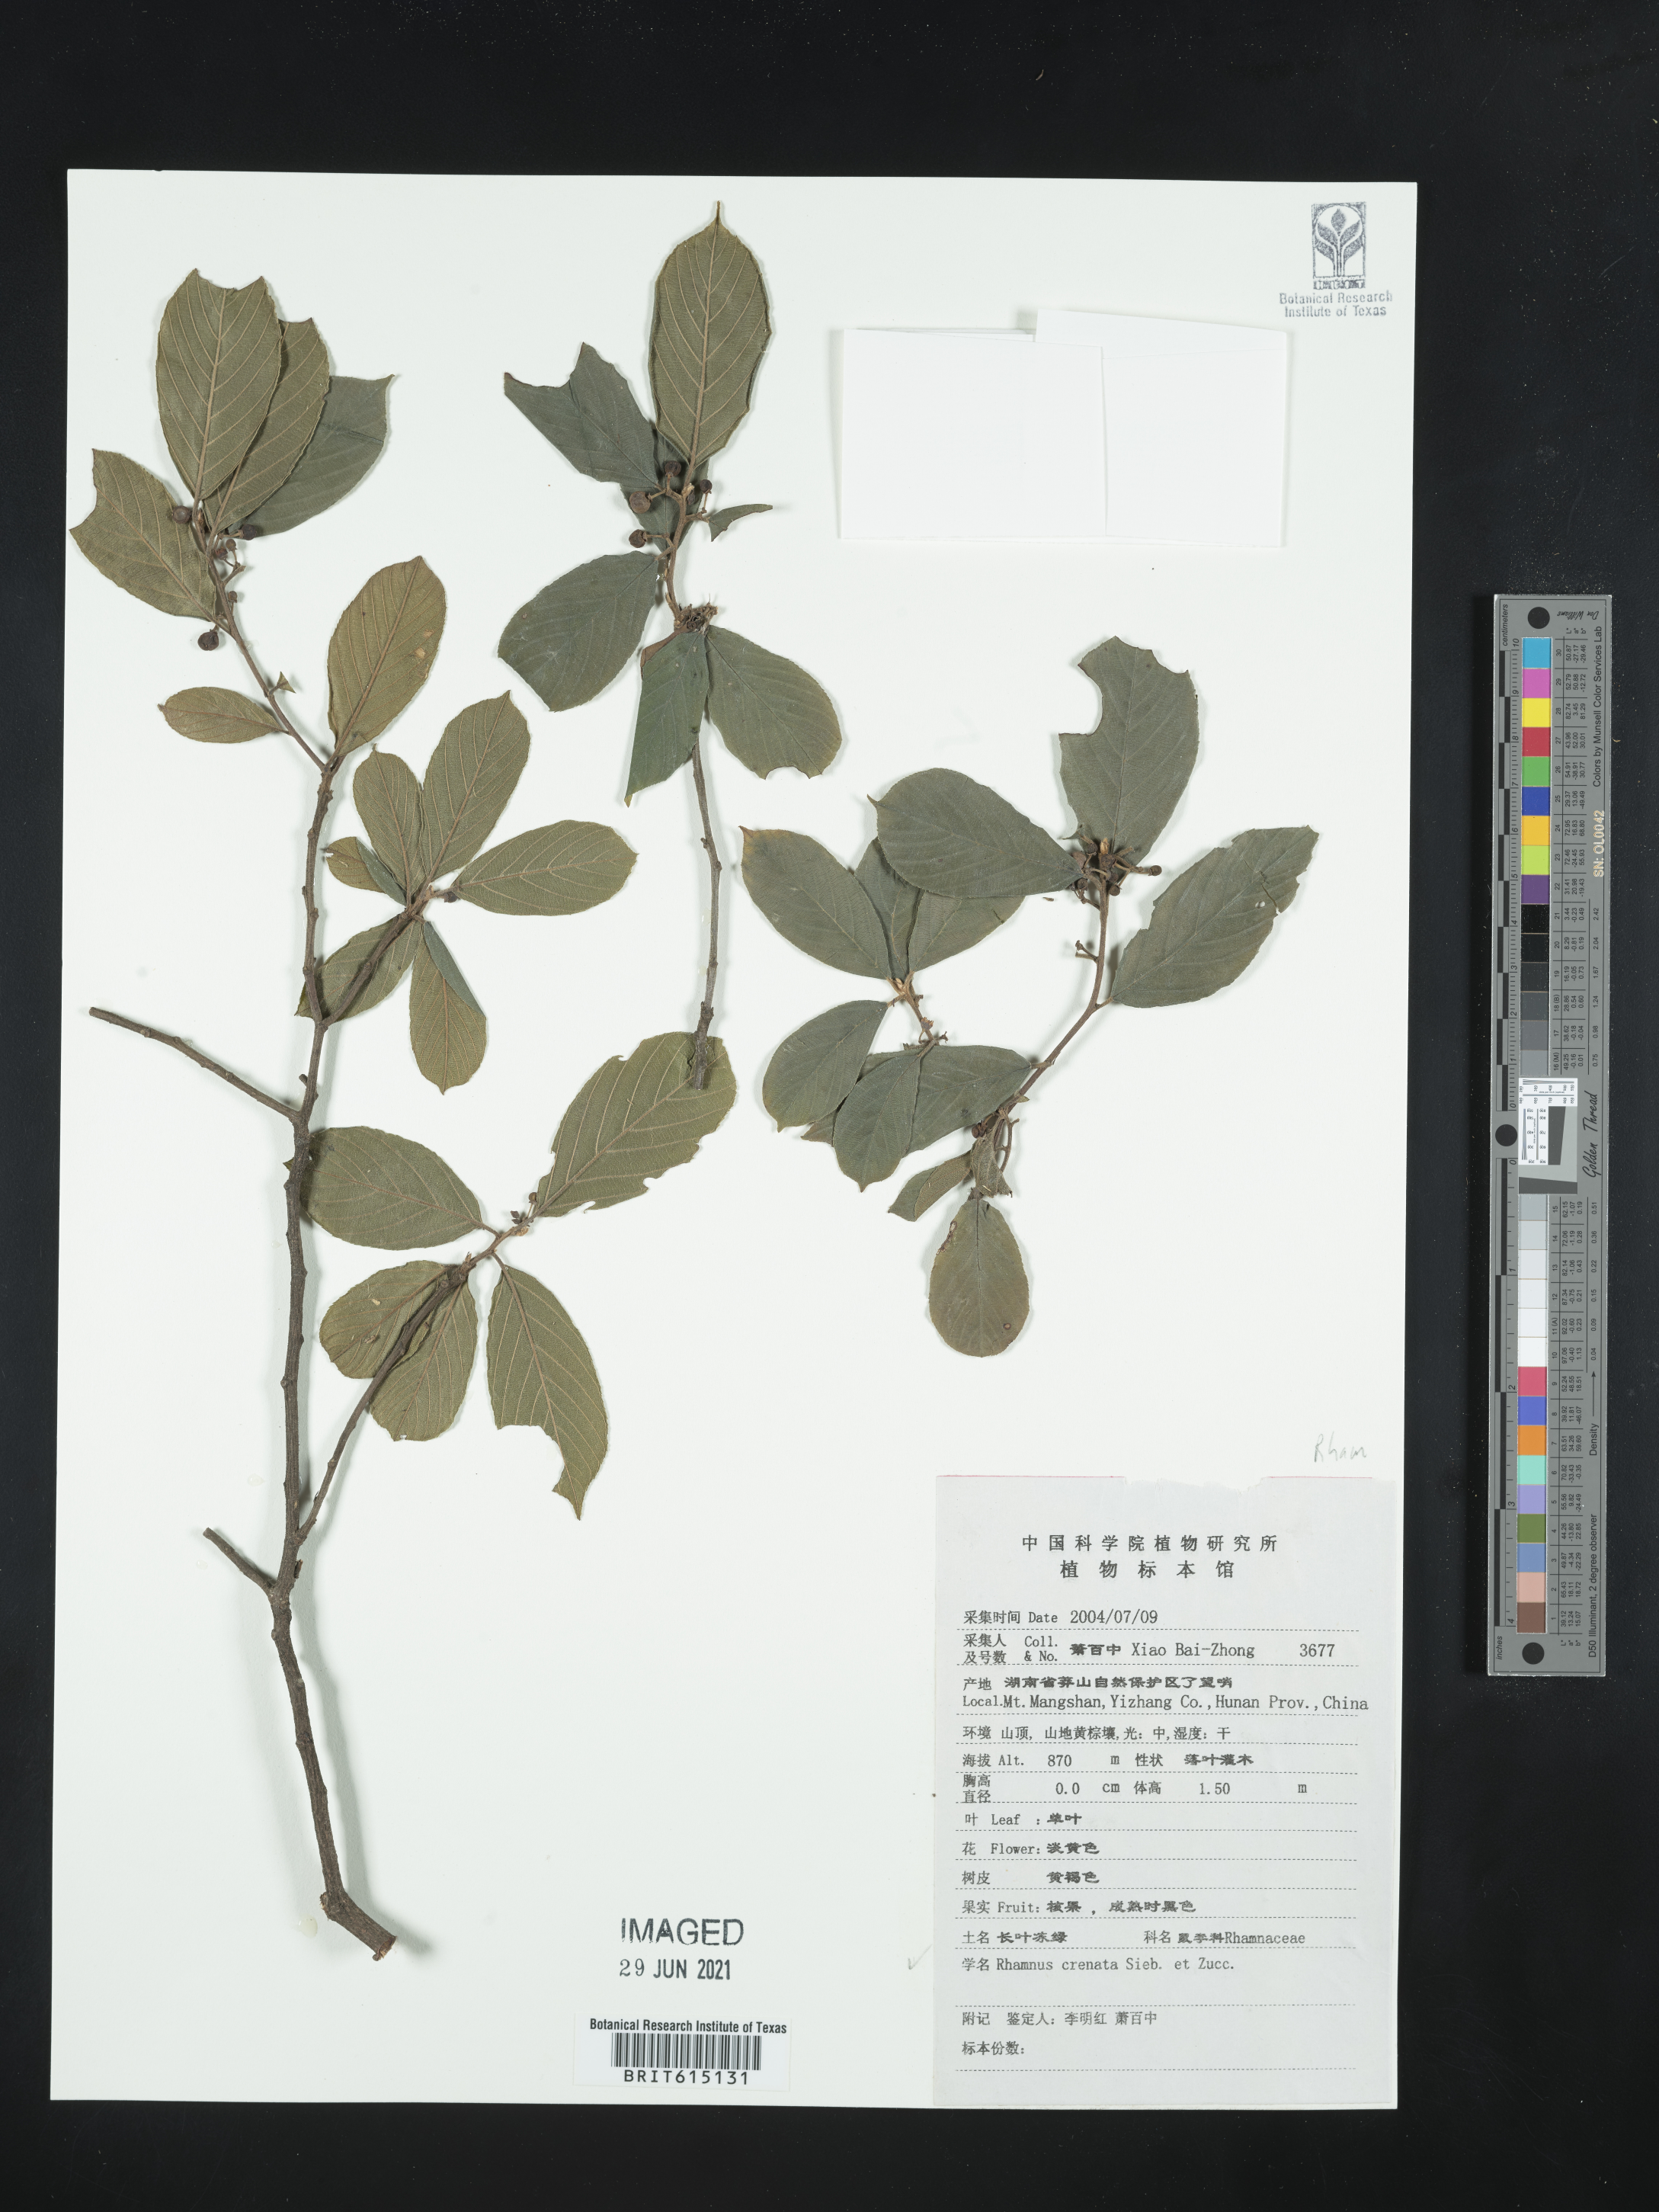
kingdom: Plantae
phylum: Tracheophyta
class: Magnoliopsida
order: Rosales
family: Rhamnaceae
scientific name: Rhamnaceae
